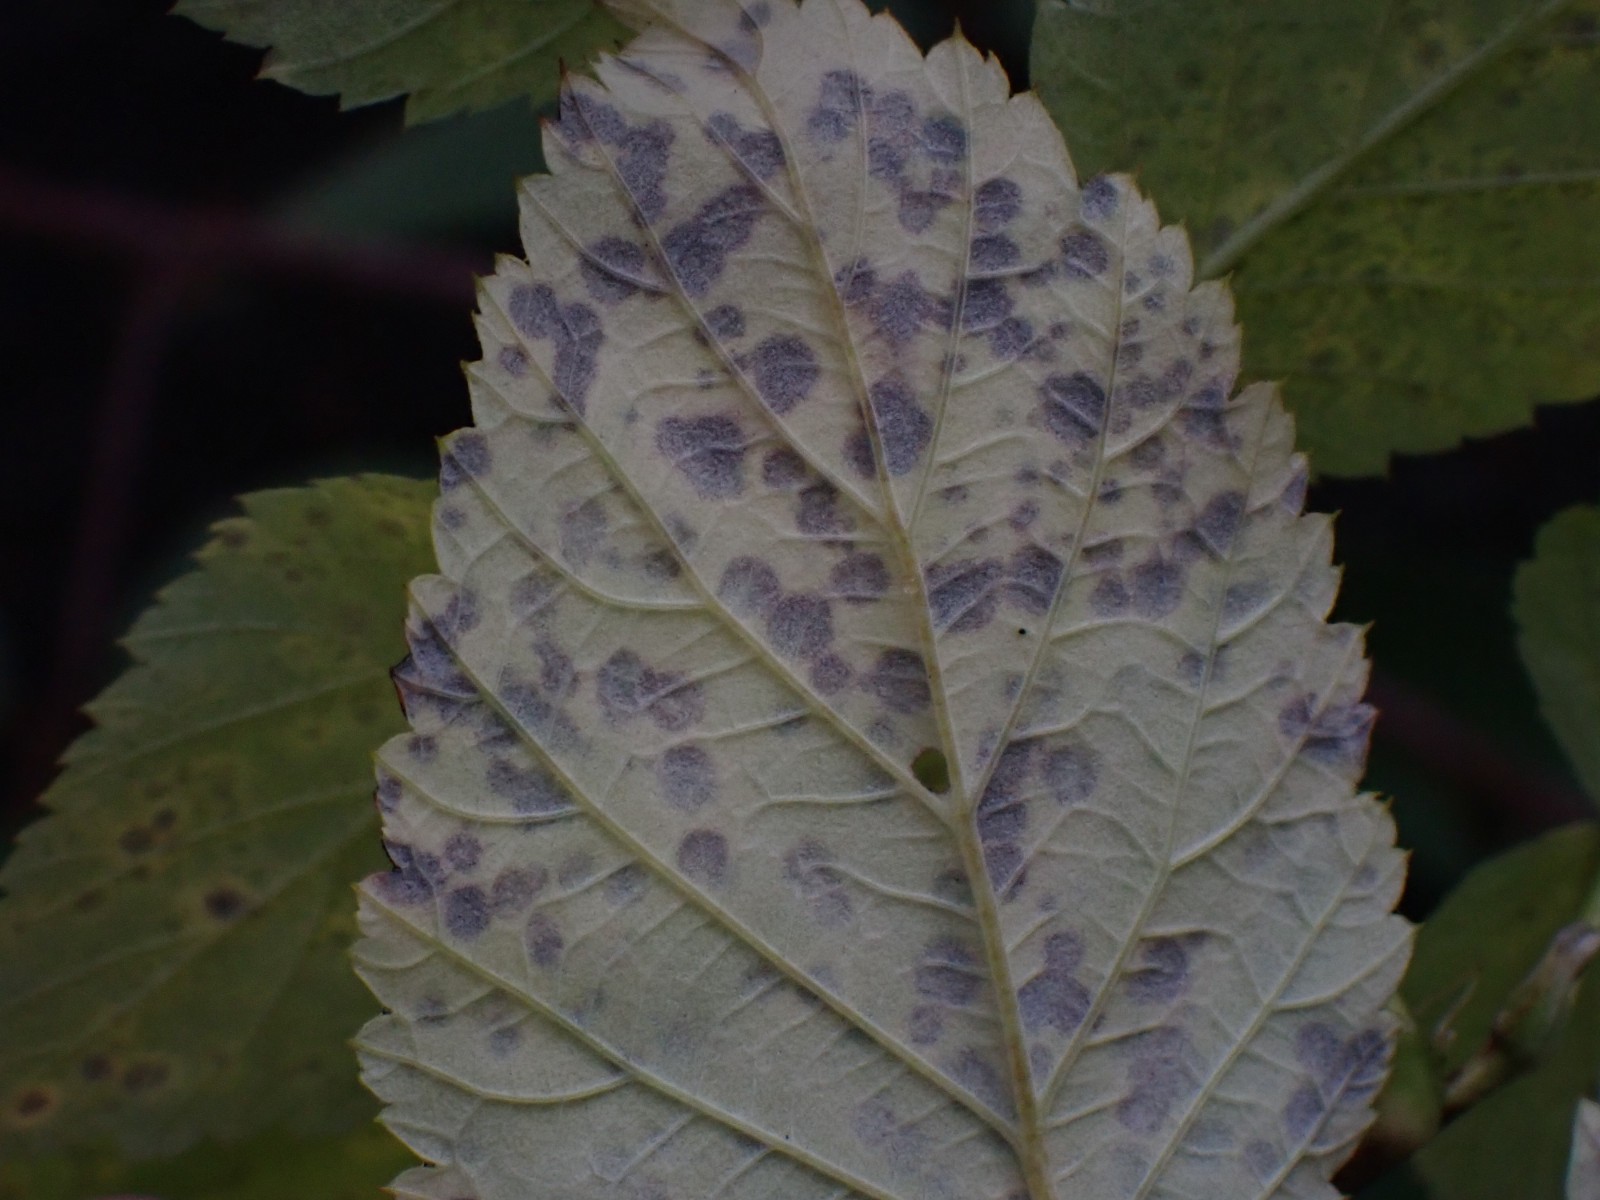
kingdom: Fungi
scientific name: Fungi
